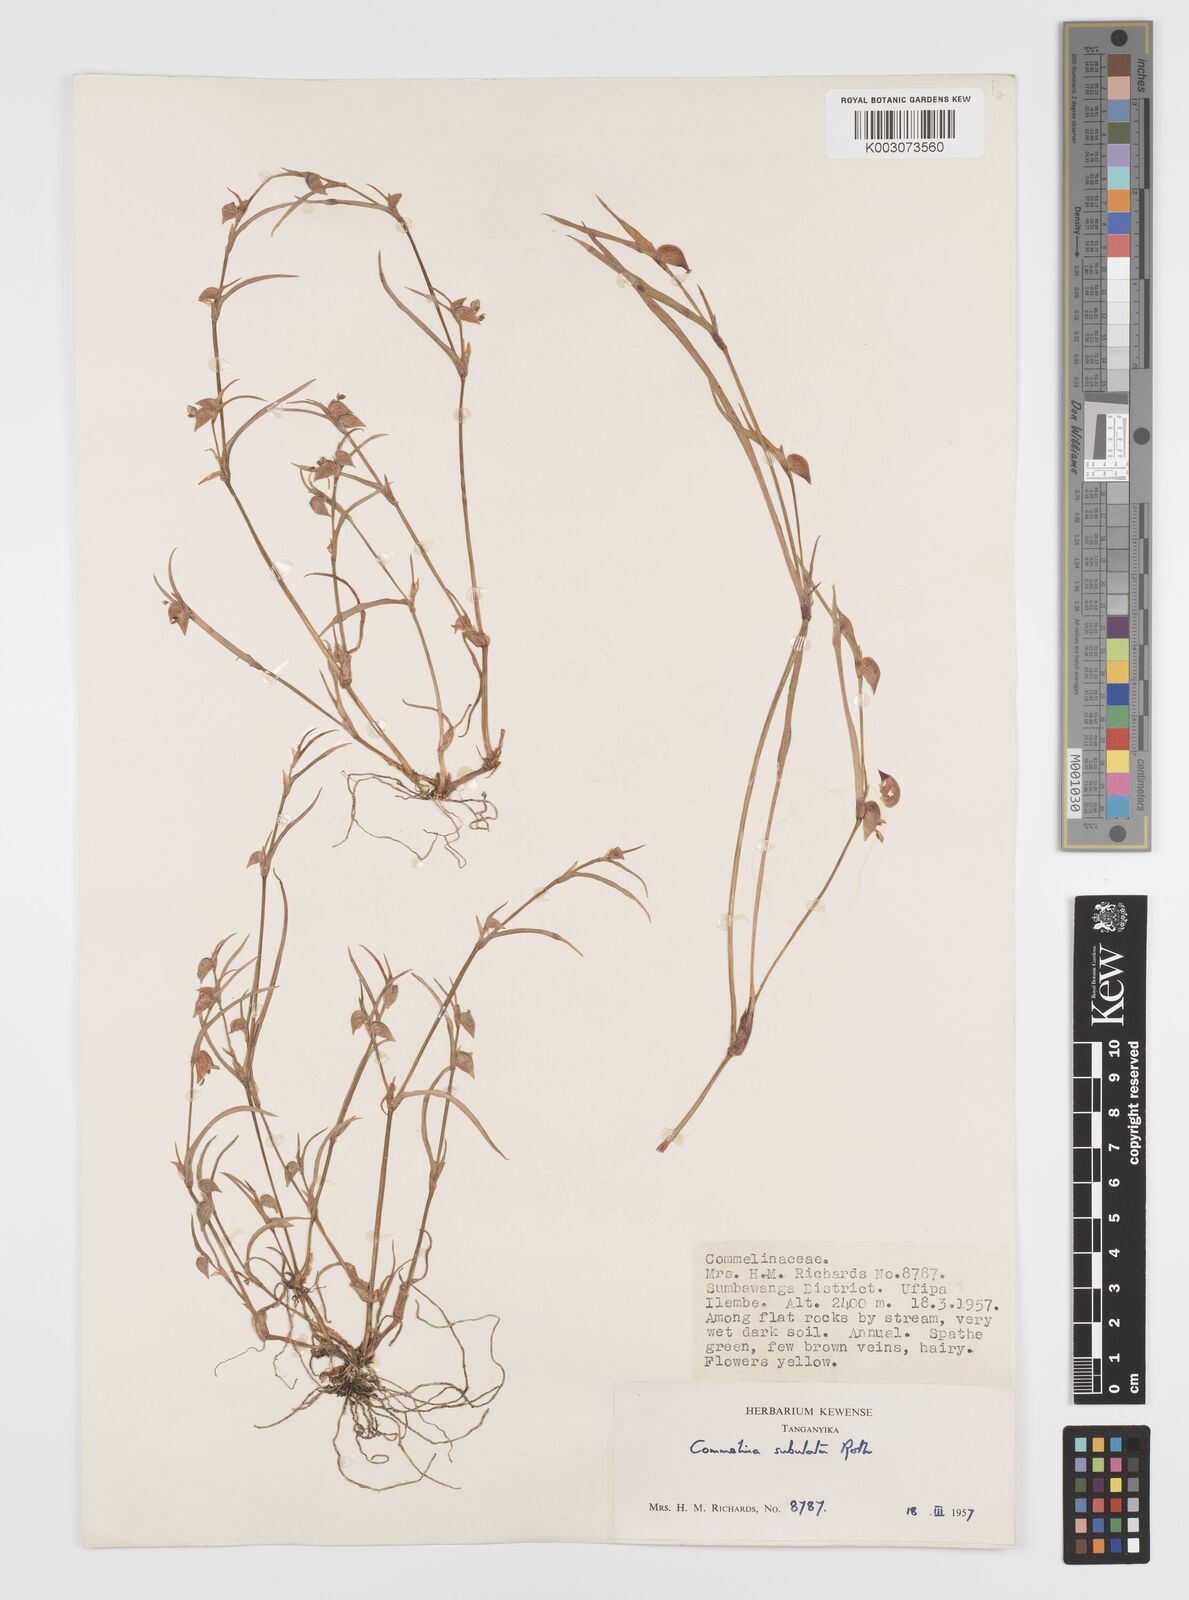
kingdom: Plantae
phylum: Tracheophyta
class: Liliopsida
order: Commelinales
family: Commelinaceae
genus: Commelina
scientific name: Commelina subulata
